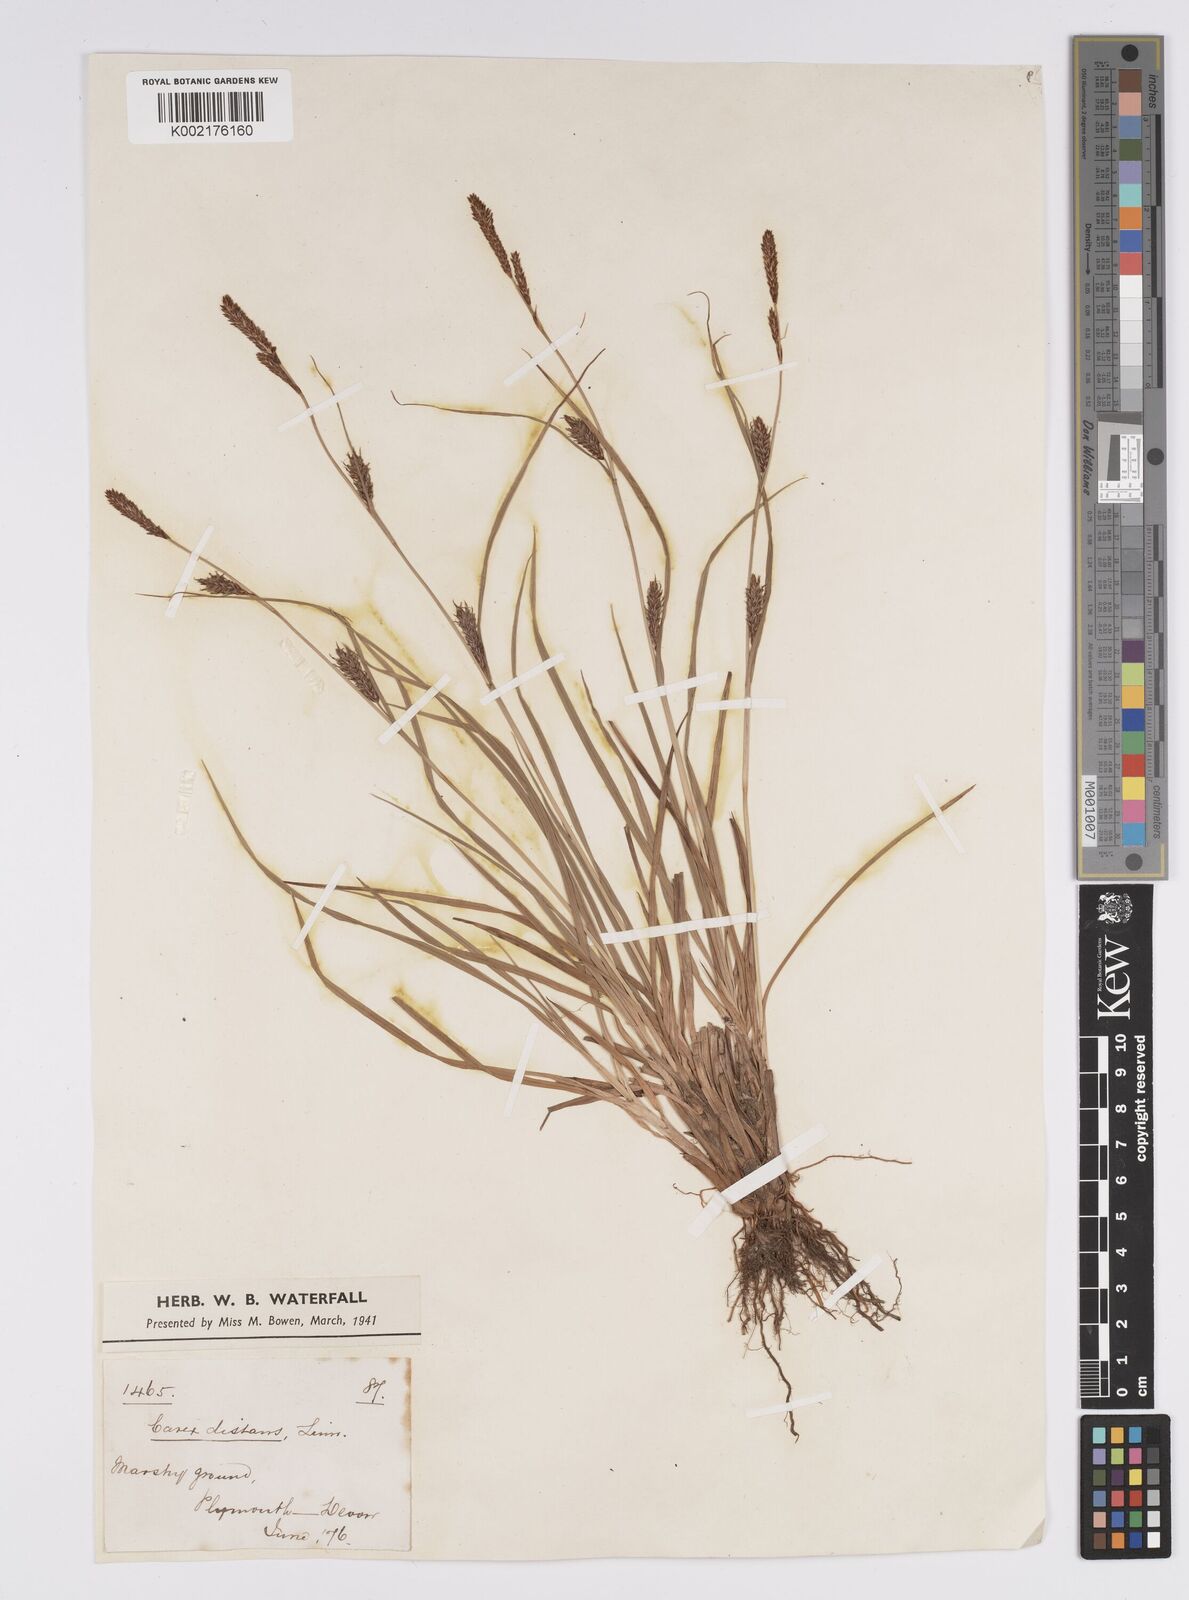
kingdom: Plantae
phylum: Tracheophyta
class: Liliopsida
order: Poales
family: Cyperaceae
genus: Carex
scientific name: Carex distans
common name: Distant sedge
